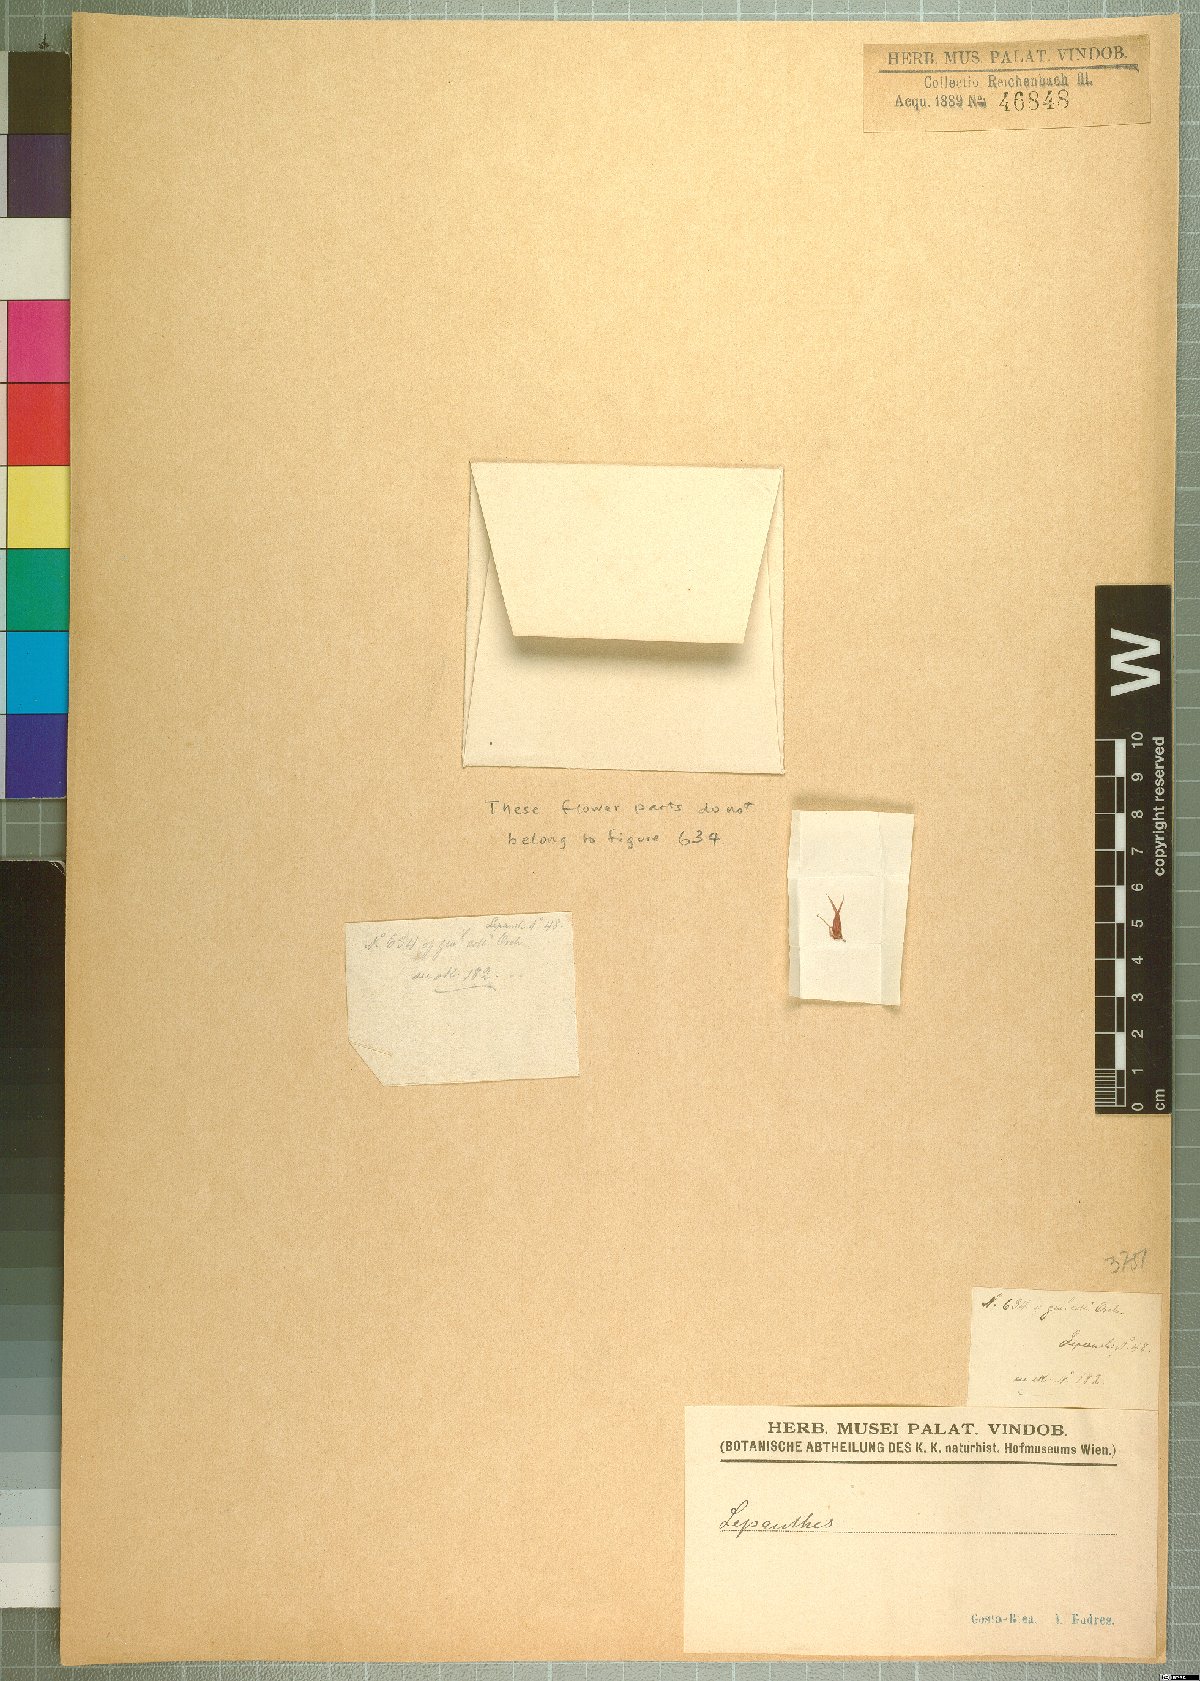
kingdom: Plantae
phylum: Tracheophyta
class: Liliopsida
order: Asparagales
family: Orchidaceae
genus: Lepanthes
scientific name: Lepanthes
